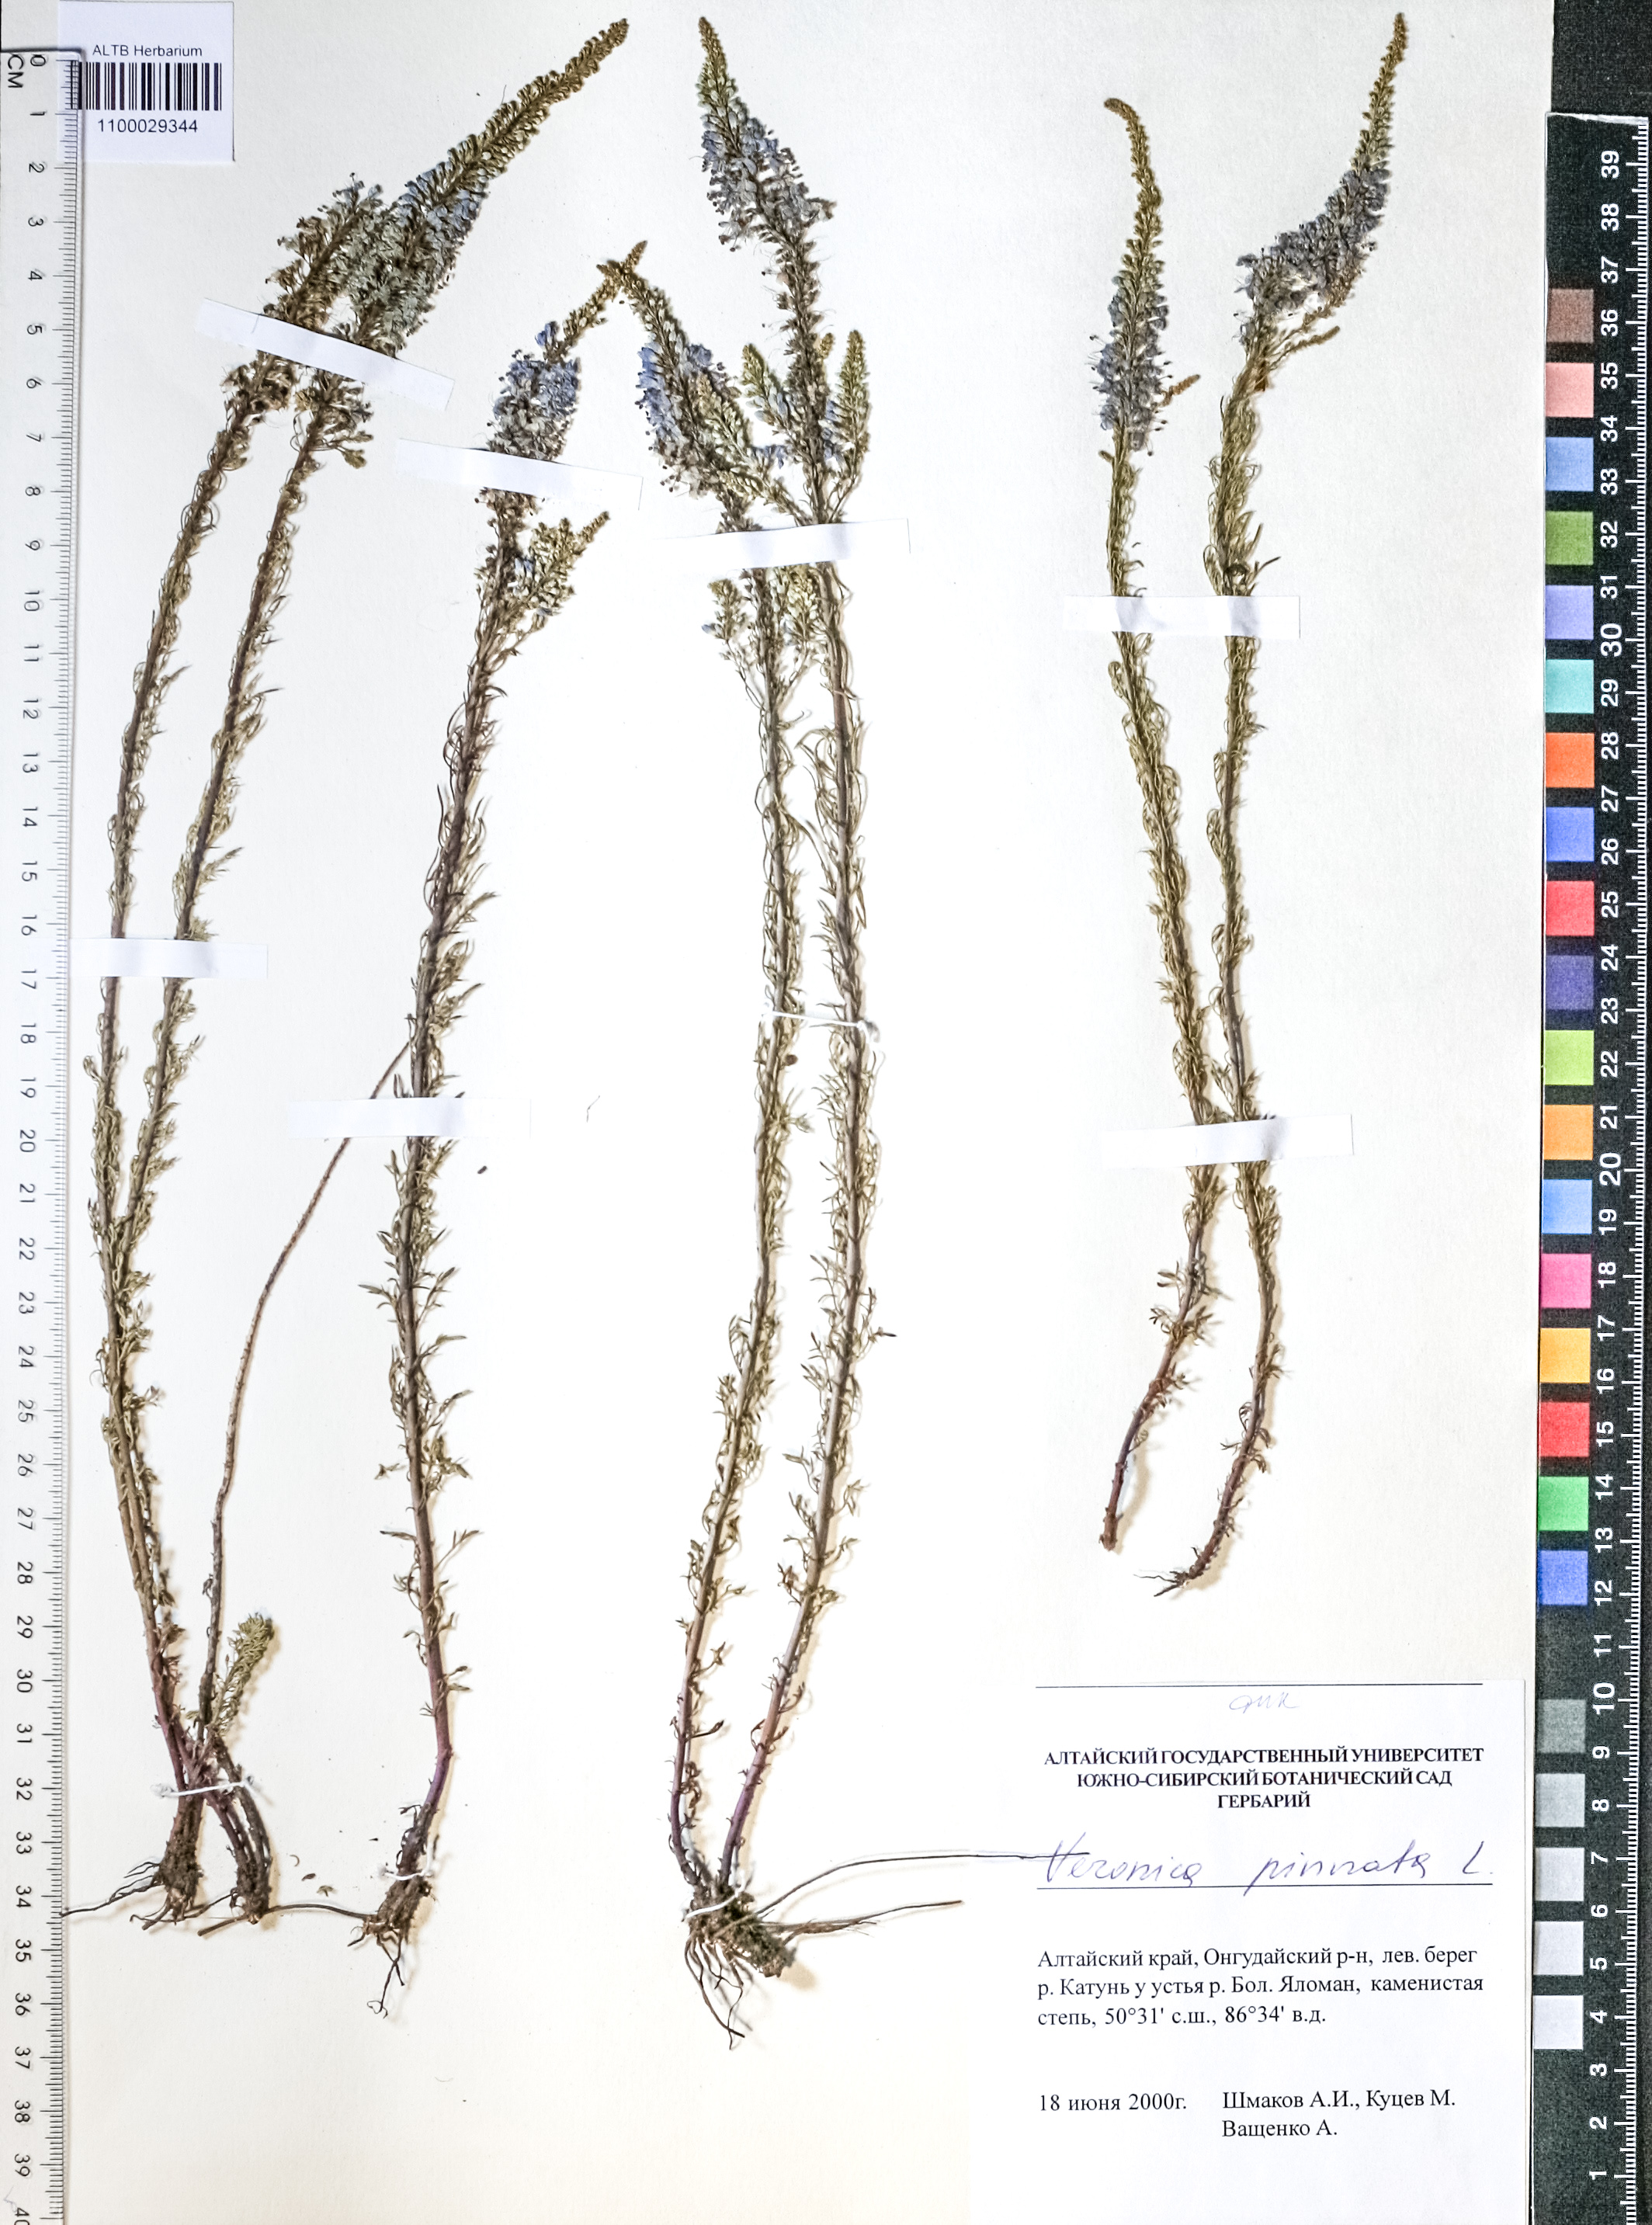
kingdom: Plantae
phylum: Tracheophyta
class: Magnoliopsida
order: Lamiales
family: Plantaginaceae
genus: Veronica
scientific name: Veronica pinnata
